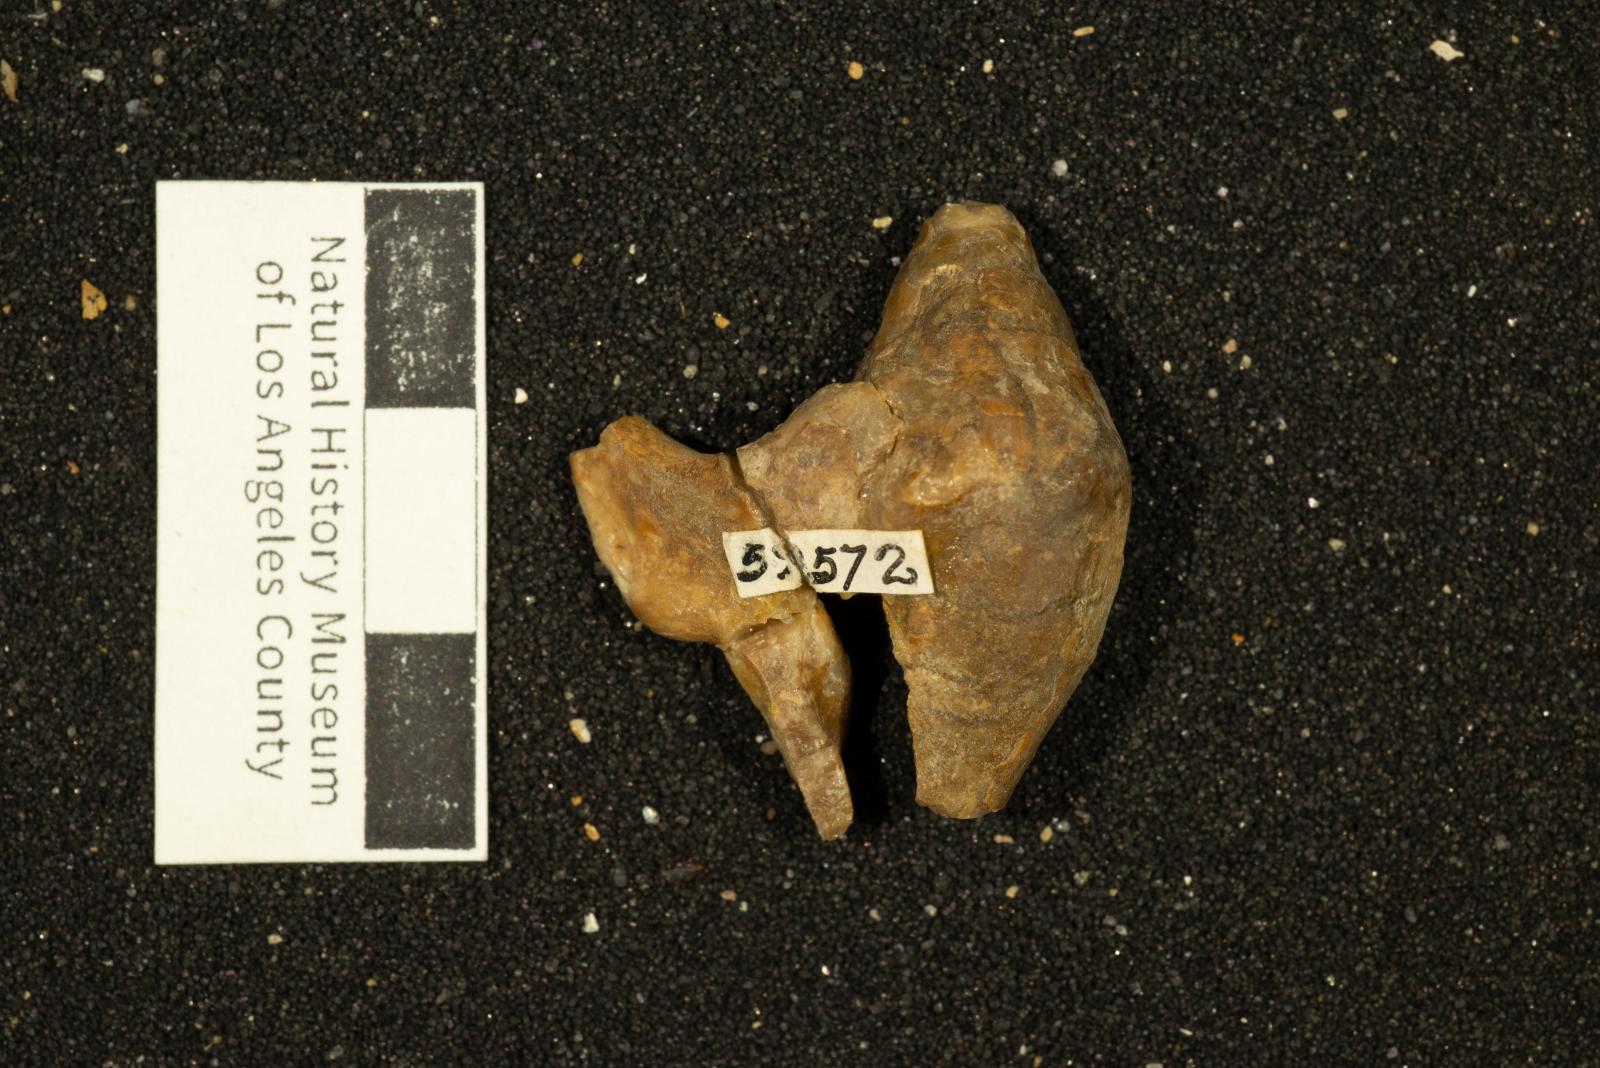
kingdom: Animalia
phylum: Mollusca
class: Gastropoda
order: Littorinimorpha
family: Aporrhaidae
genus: Pyktes
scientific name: Pyktes daiphron
